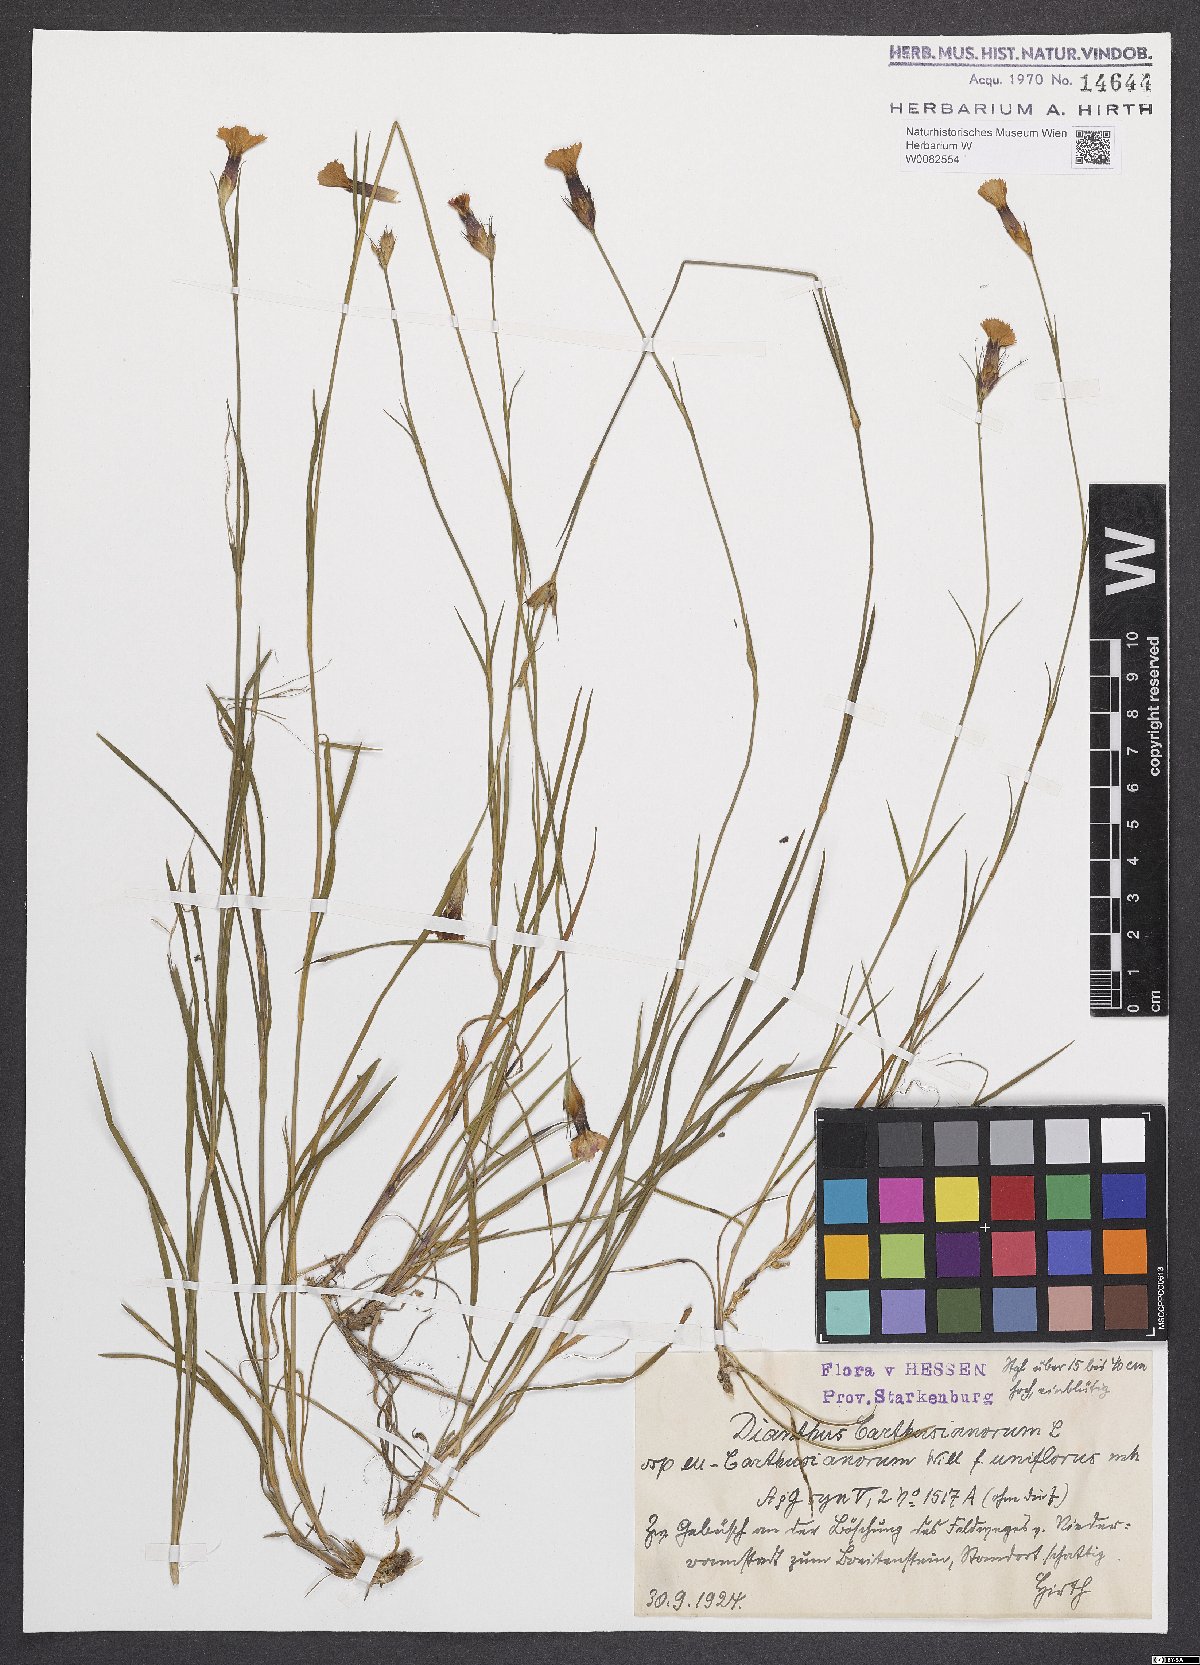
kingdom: Plantae
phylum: Tracheophyta
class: Magnoliopsida
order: Caryophyllales
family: Caryophyllaceae
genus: Dianthus
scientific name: Dianthus carthusianorum
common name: Carthusian pink
